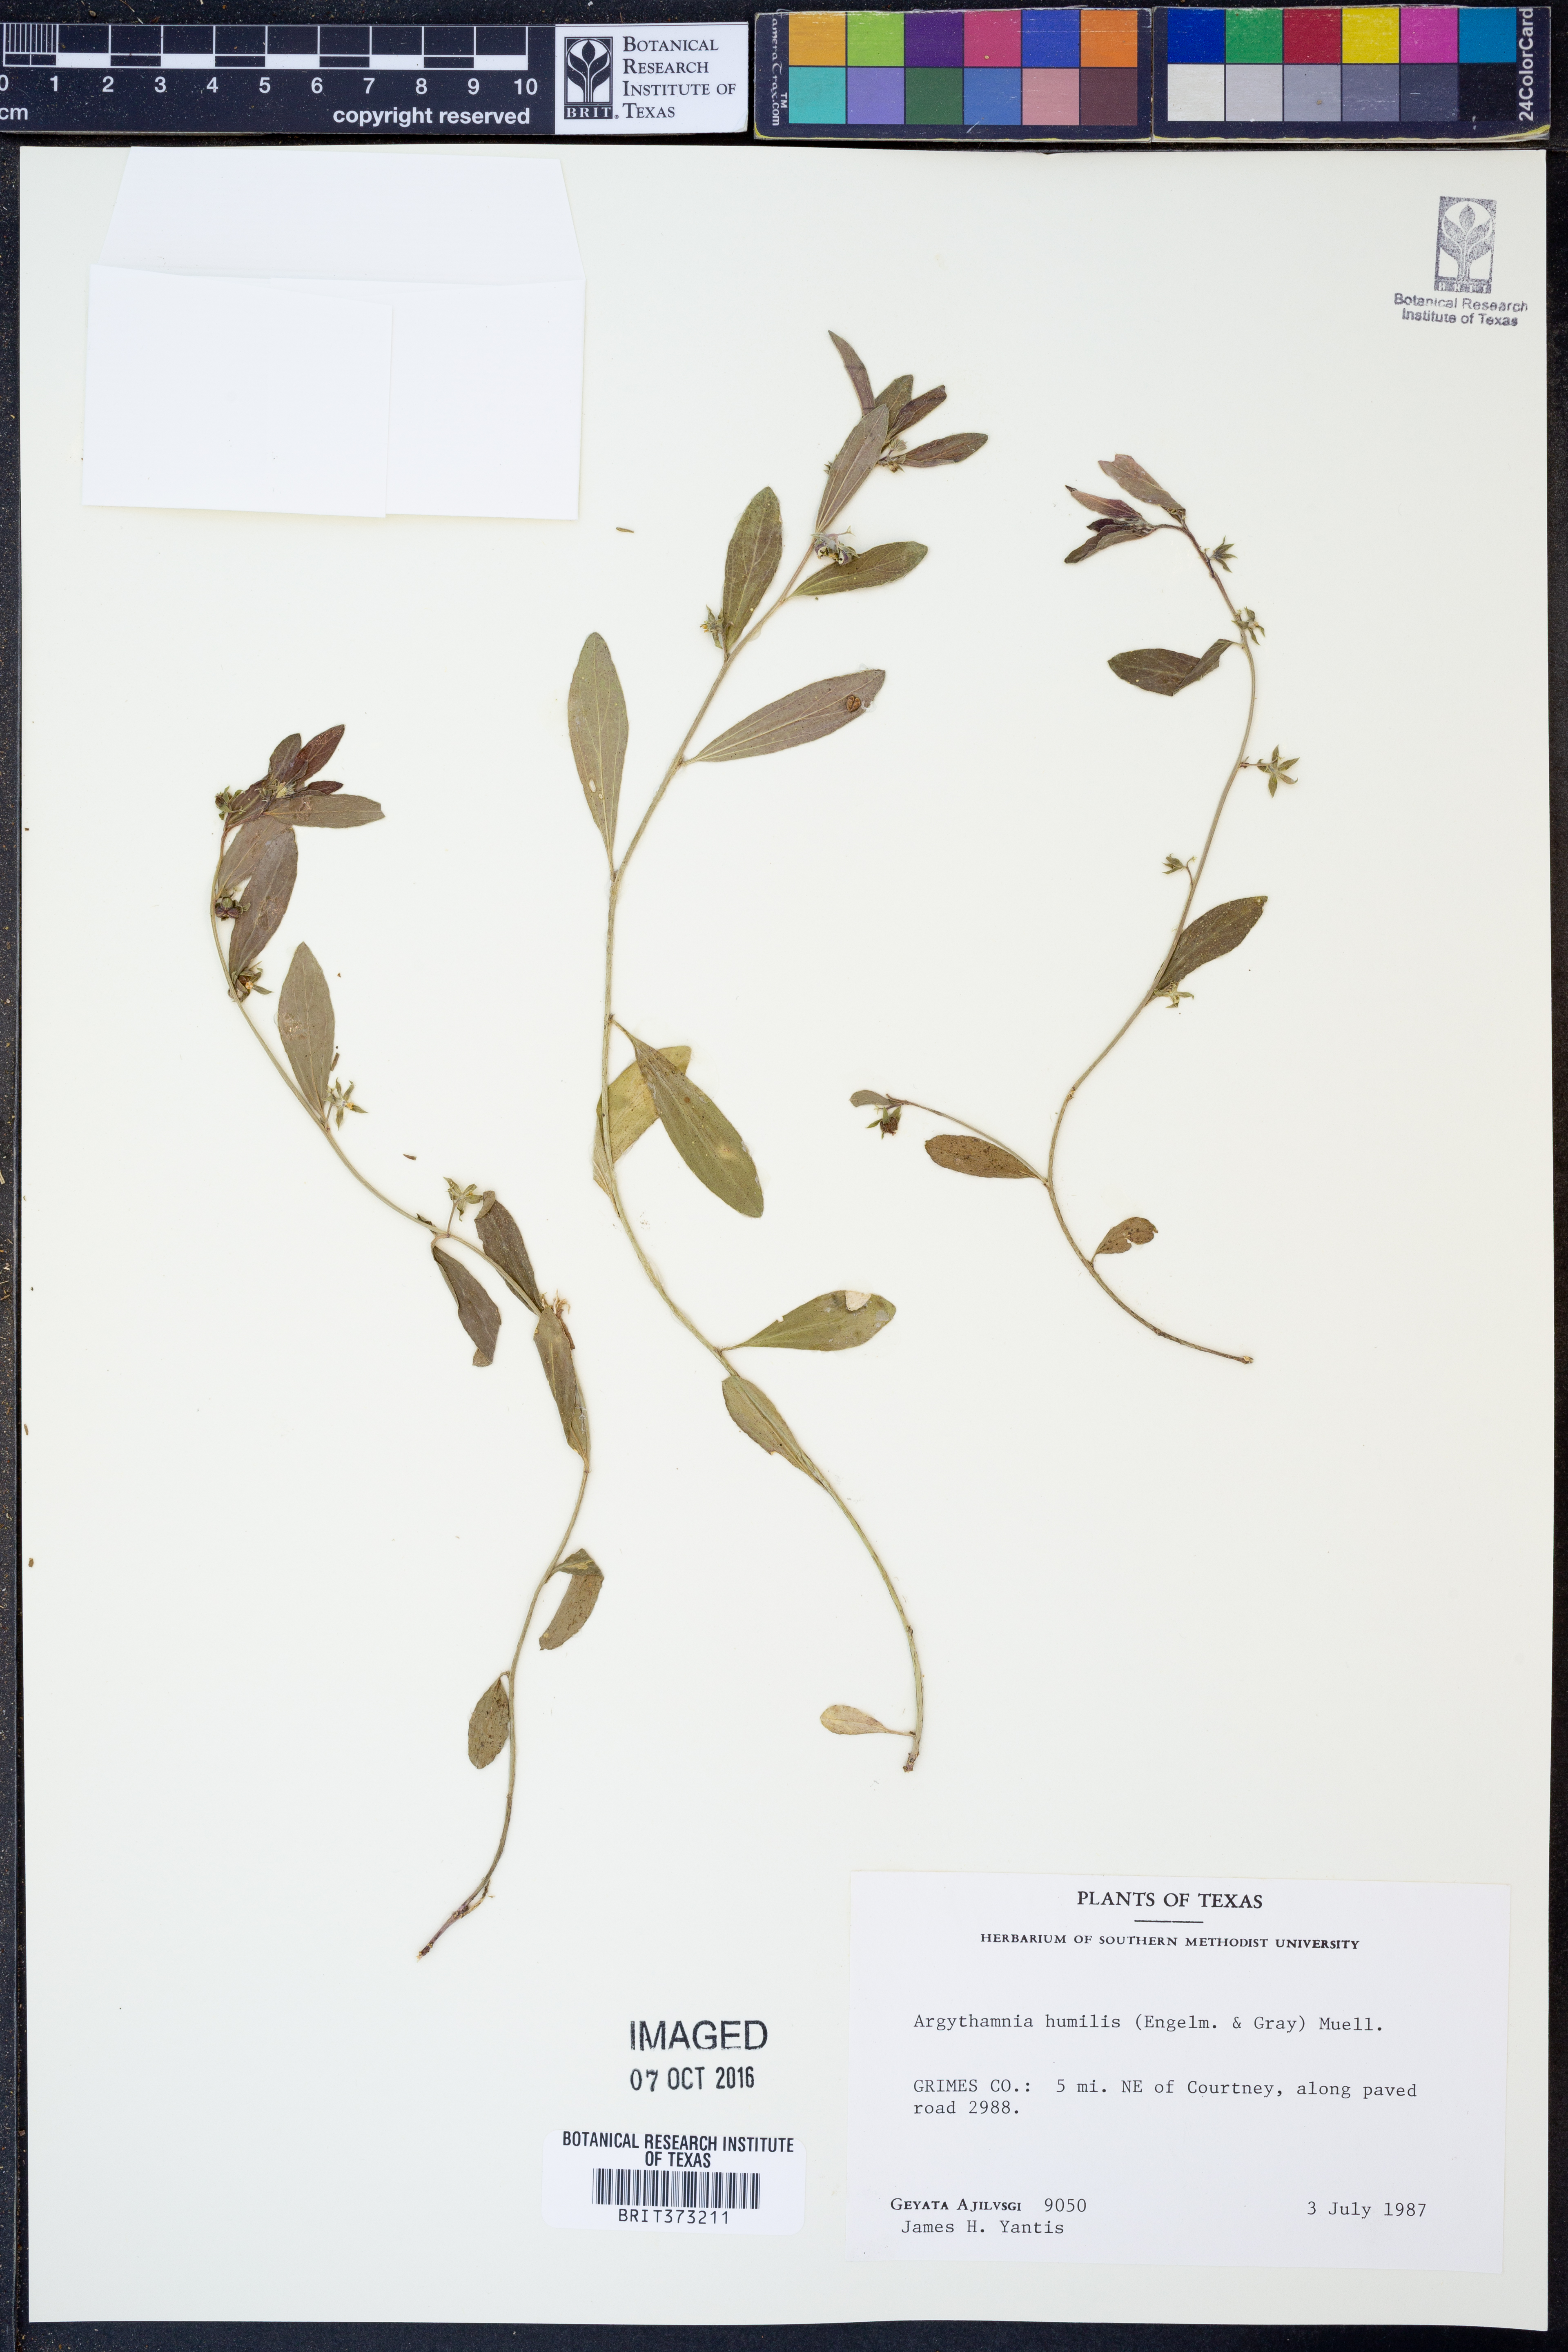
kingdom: Plantae
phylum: Tracheophyta
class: Magnoliopsida
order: Malpighiales
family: Euphorbiaceae
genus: Ditaxis
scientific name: Ditaxis humilis
